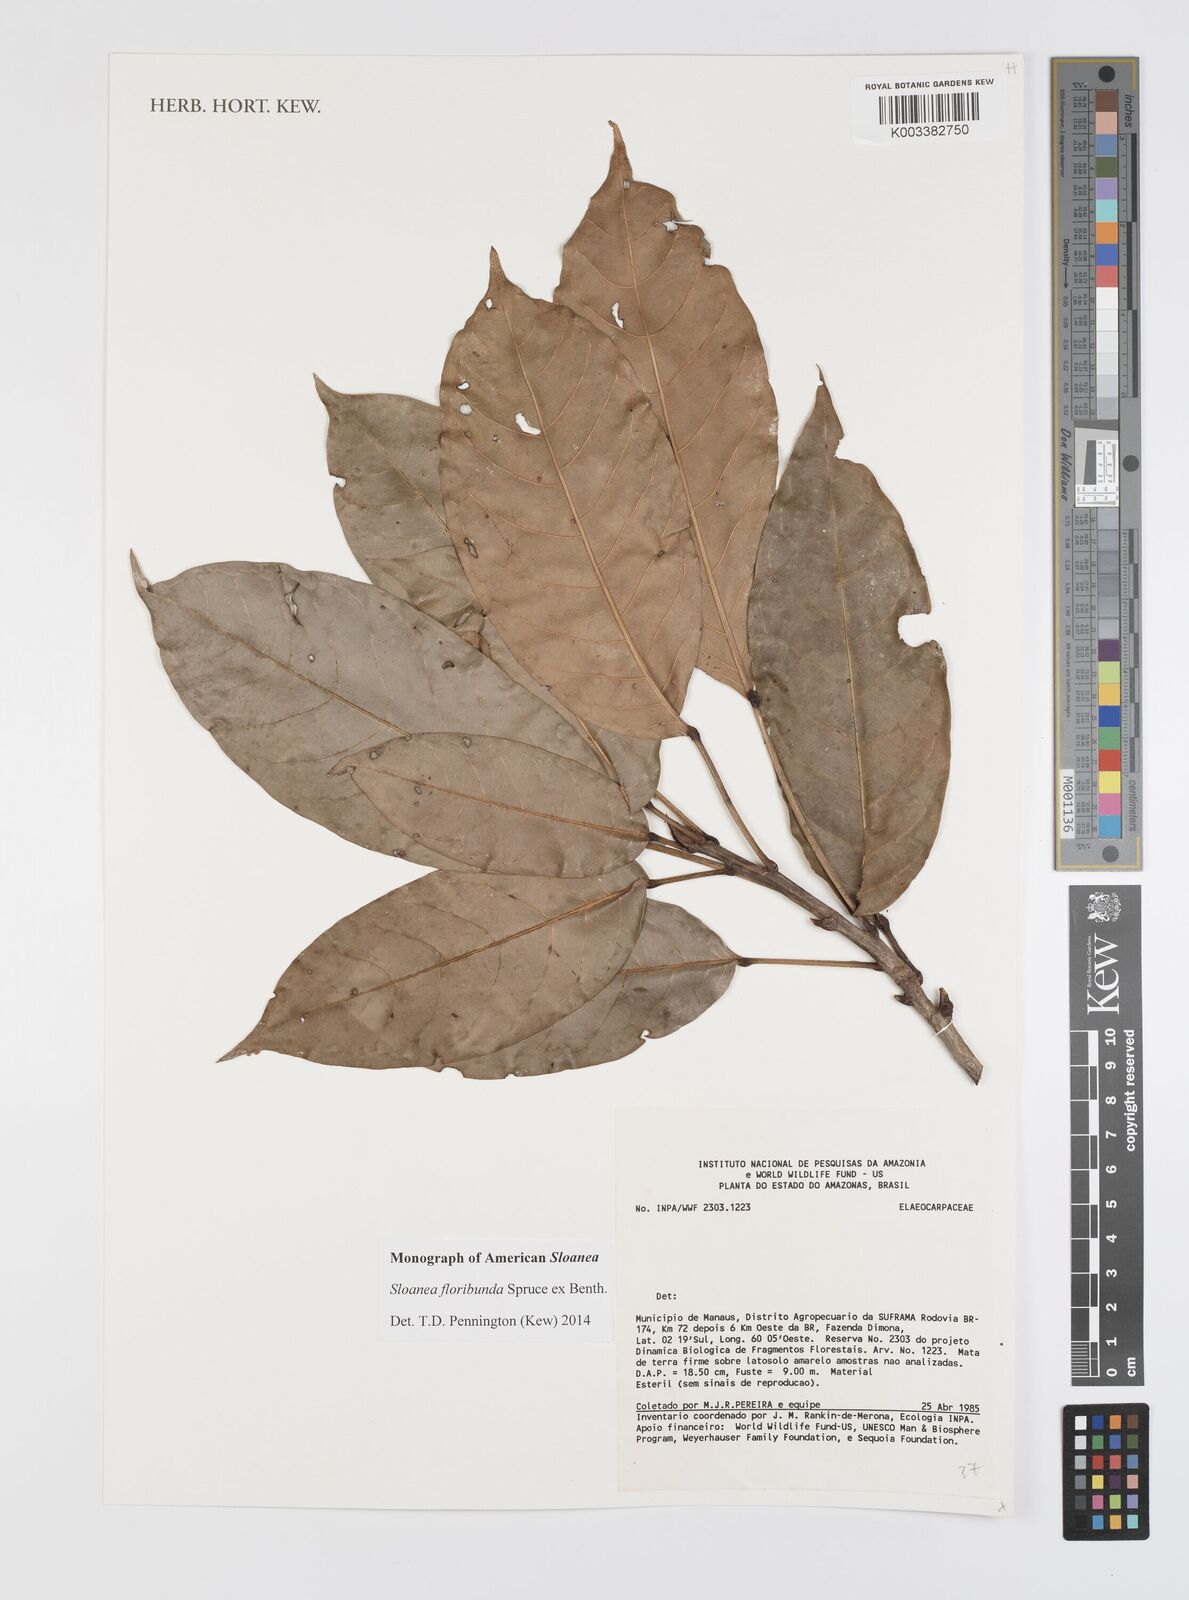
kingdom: Plantae
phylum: Tracheophyta
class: Magnoliopsida
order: Oxalidales
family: Elaeocarpaceae
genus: Sloanea
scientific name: Sloanea floribunda
